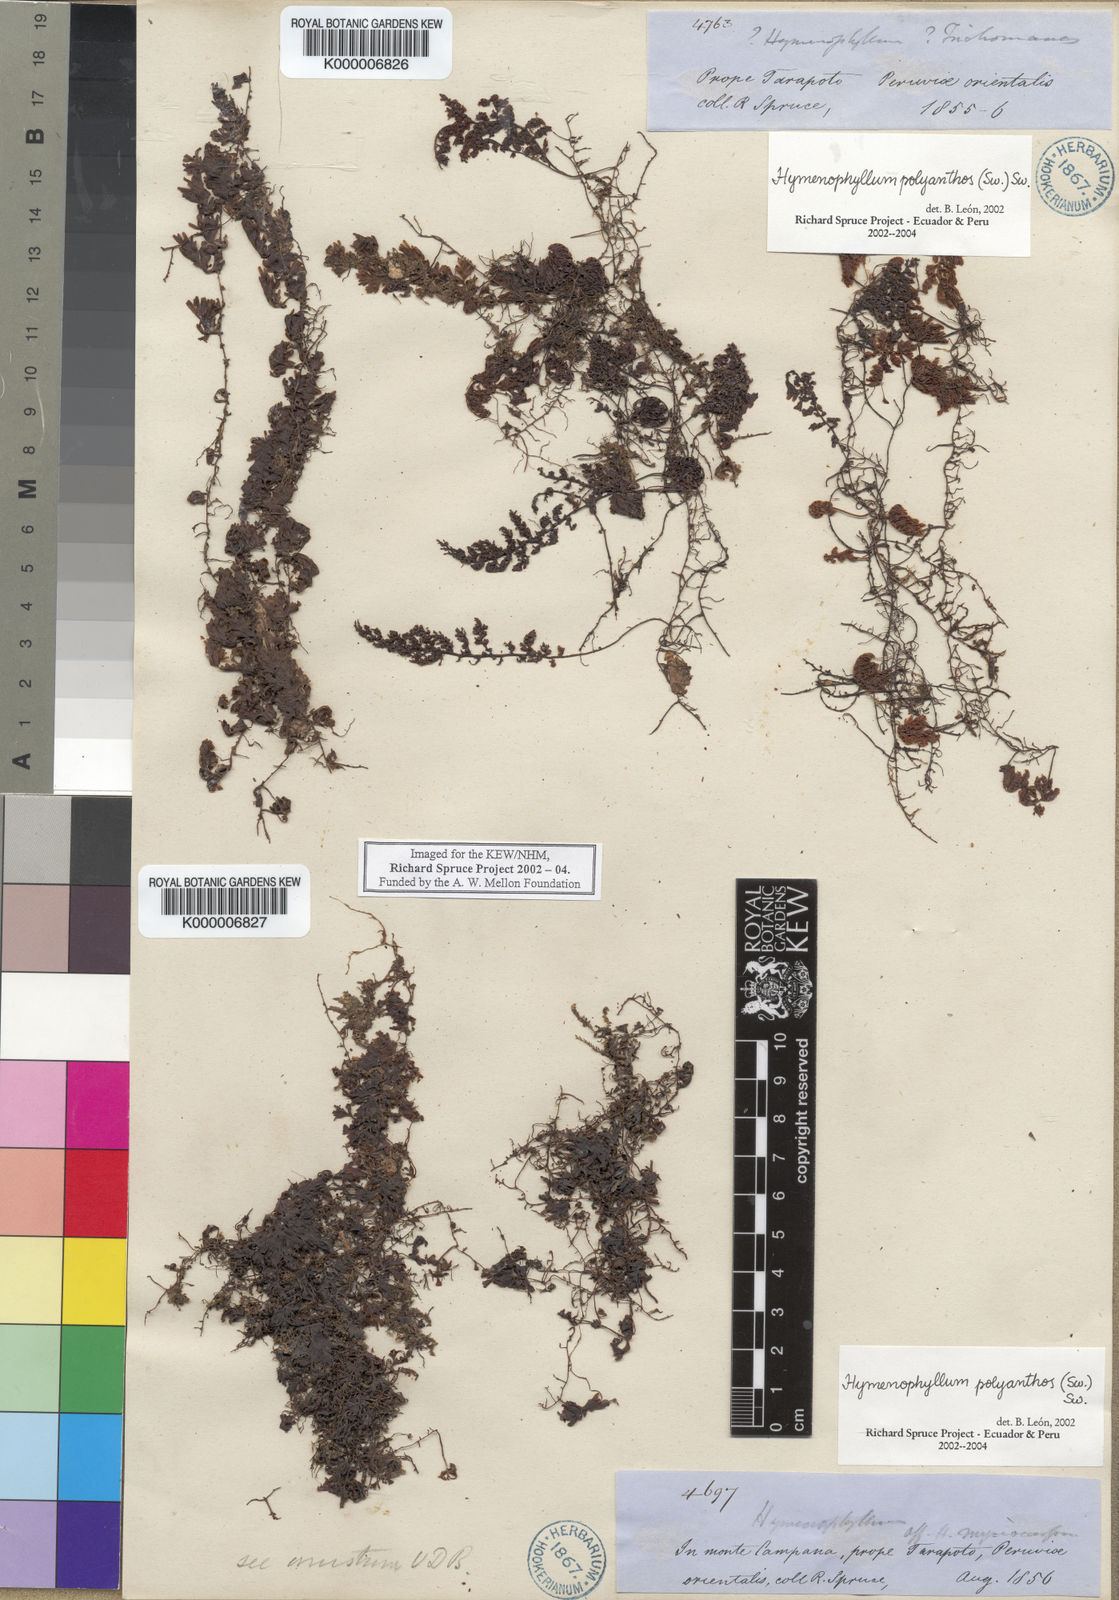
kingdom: Plantae
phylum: Tracheophyta
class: Polypodiopsida
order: Hymenophyllales
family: Hymenophyllaceae
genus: Hymenophyllum
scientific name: Hymenophyllum polyanthos
